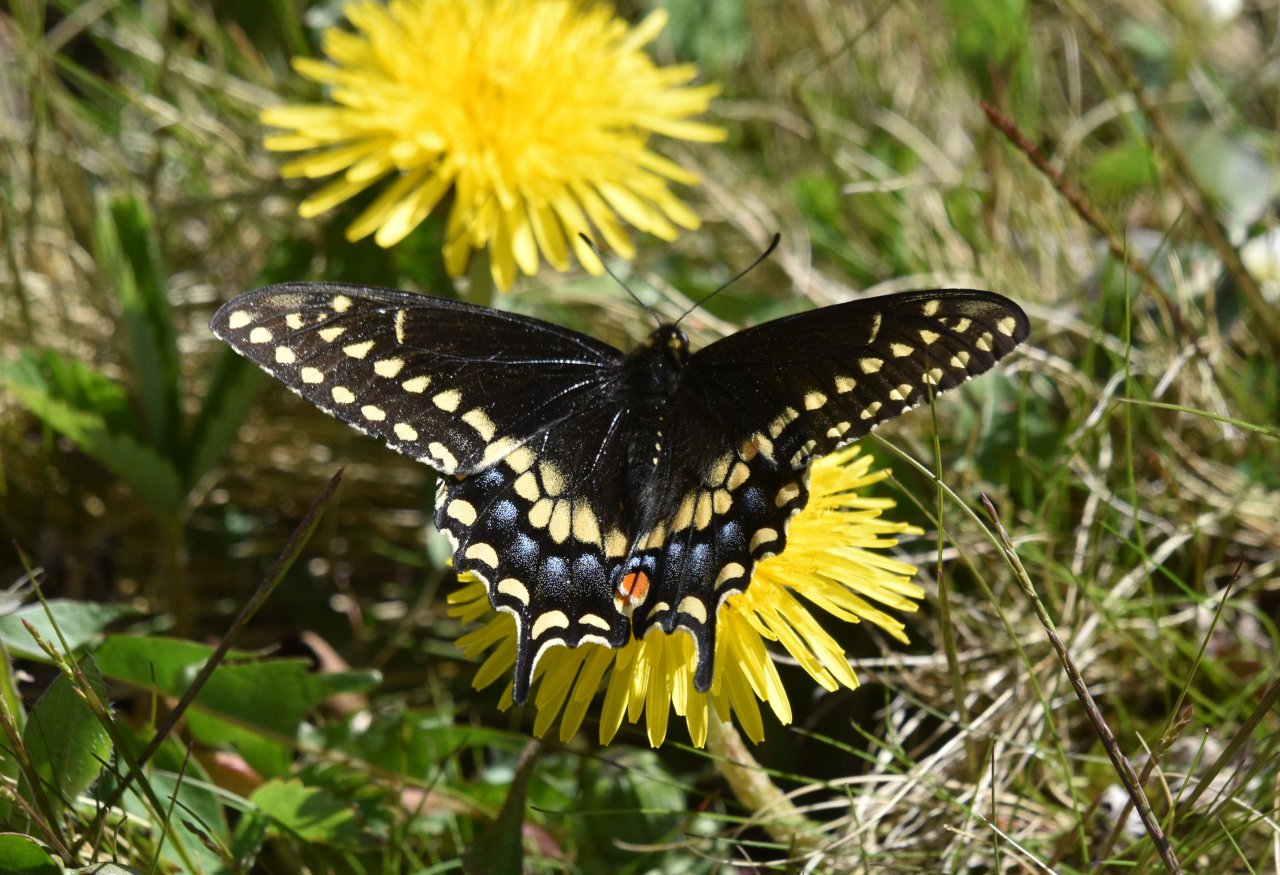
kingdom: Animalia
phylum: Arthropoda
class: Insecta
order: Lepidoptera
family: Papilionidae
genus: Papilio
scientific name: Papilio polyxenes
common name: Black Swallowtail
